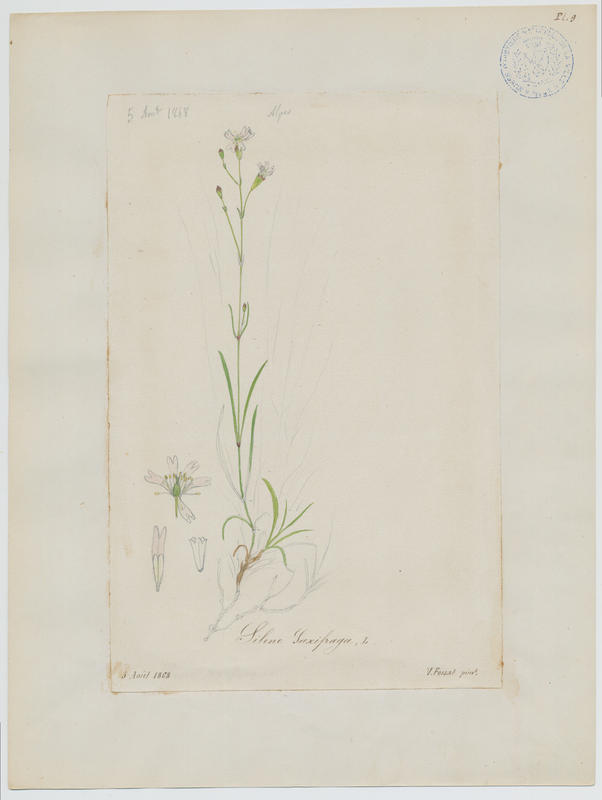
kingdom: Plantae
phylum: Tracheophyta
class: Magnoliopsida
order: Caryophyllales
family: Caryophyllaceae
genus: Silene
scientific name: Silene saxifraga
